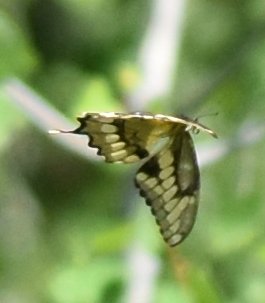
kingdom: Animalia
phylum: Arthropoda
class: Insecta
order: Lepidoptera
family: Papilionidae
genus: Papilio
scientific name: Papilio cresphontes
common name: Eastern Giant Swallowtail
